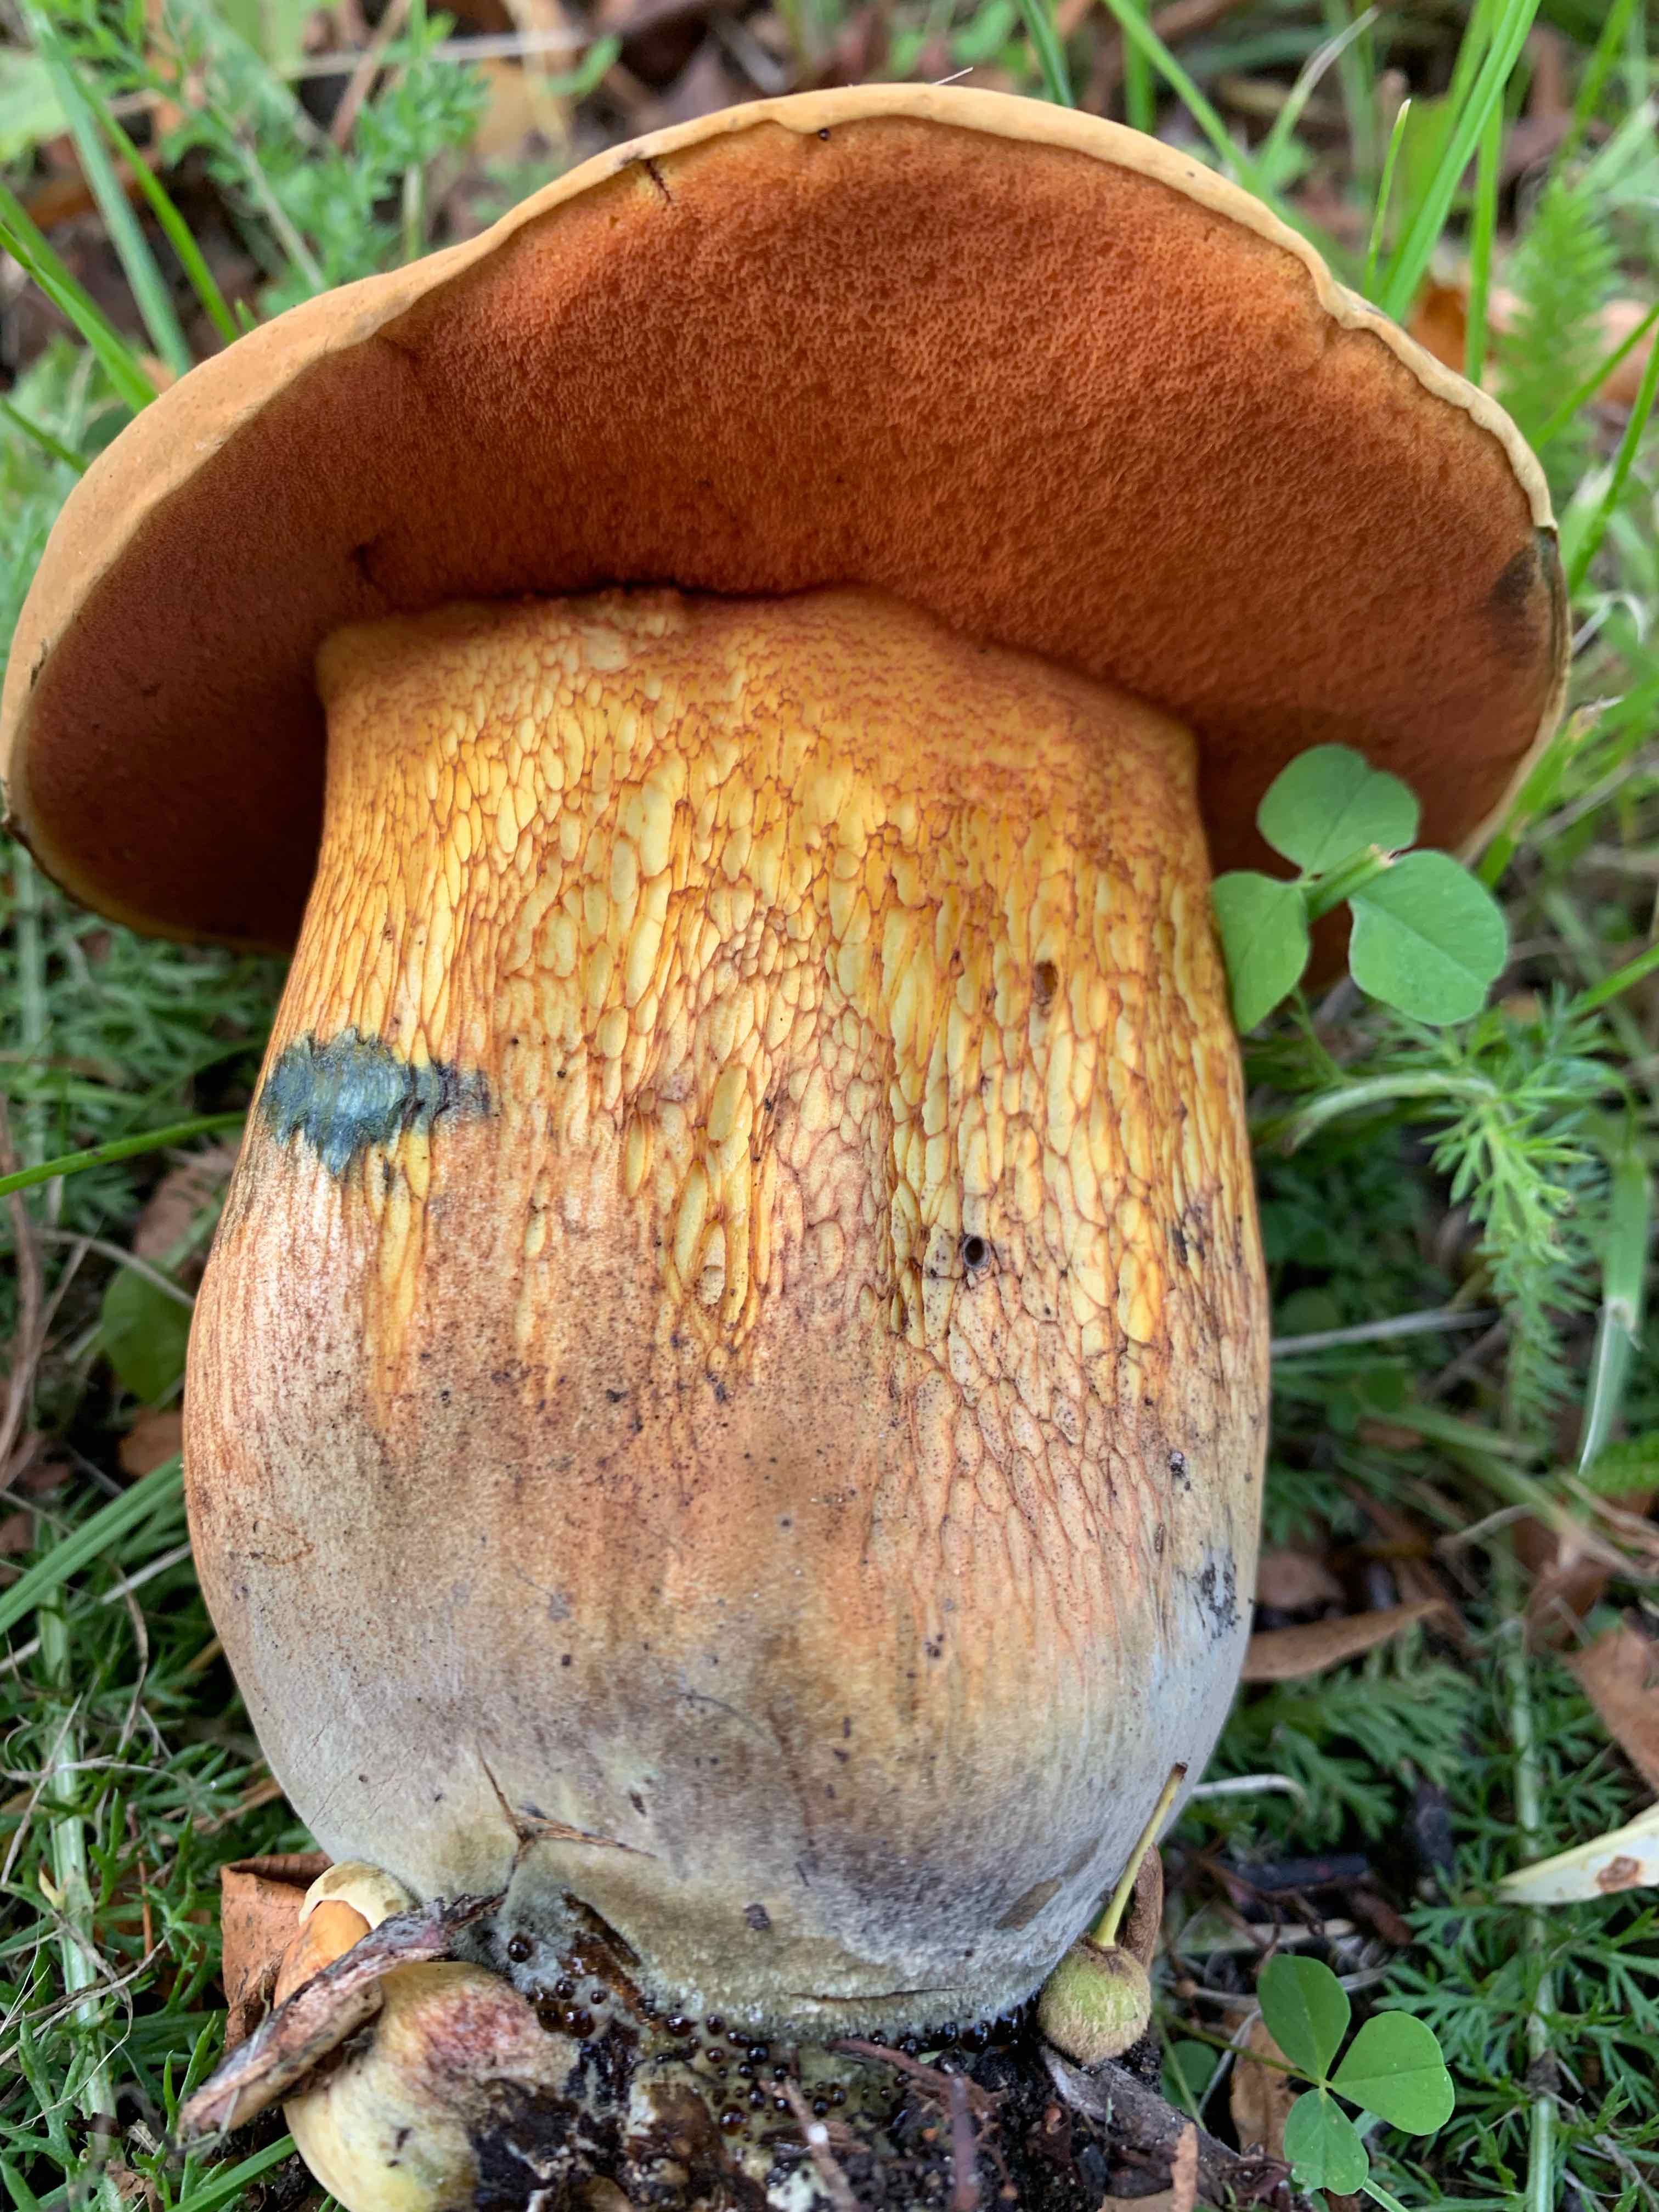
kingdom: Fungi
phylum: Basidiomycota
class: Agaricomycetes
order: Boletales
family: Boletaceae
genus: Suillellus
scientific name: Suillellus luridus
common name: netstokket indigorørhat
